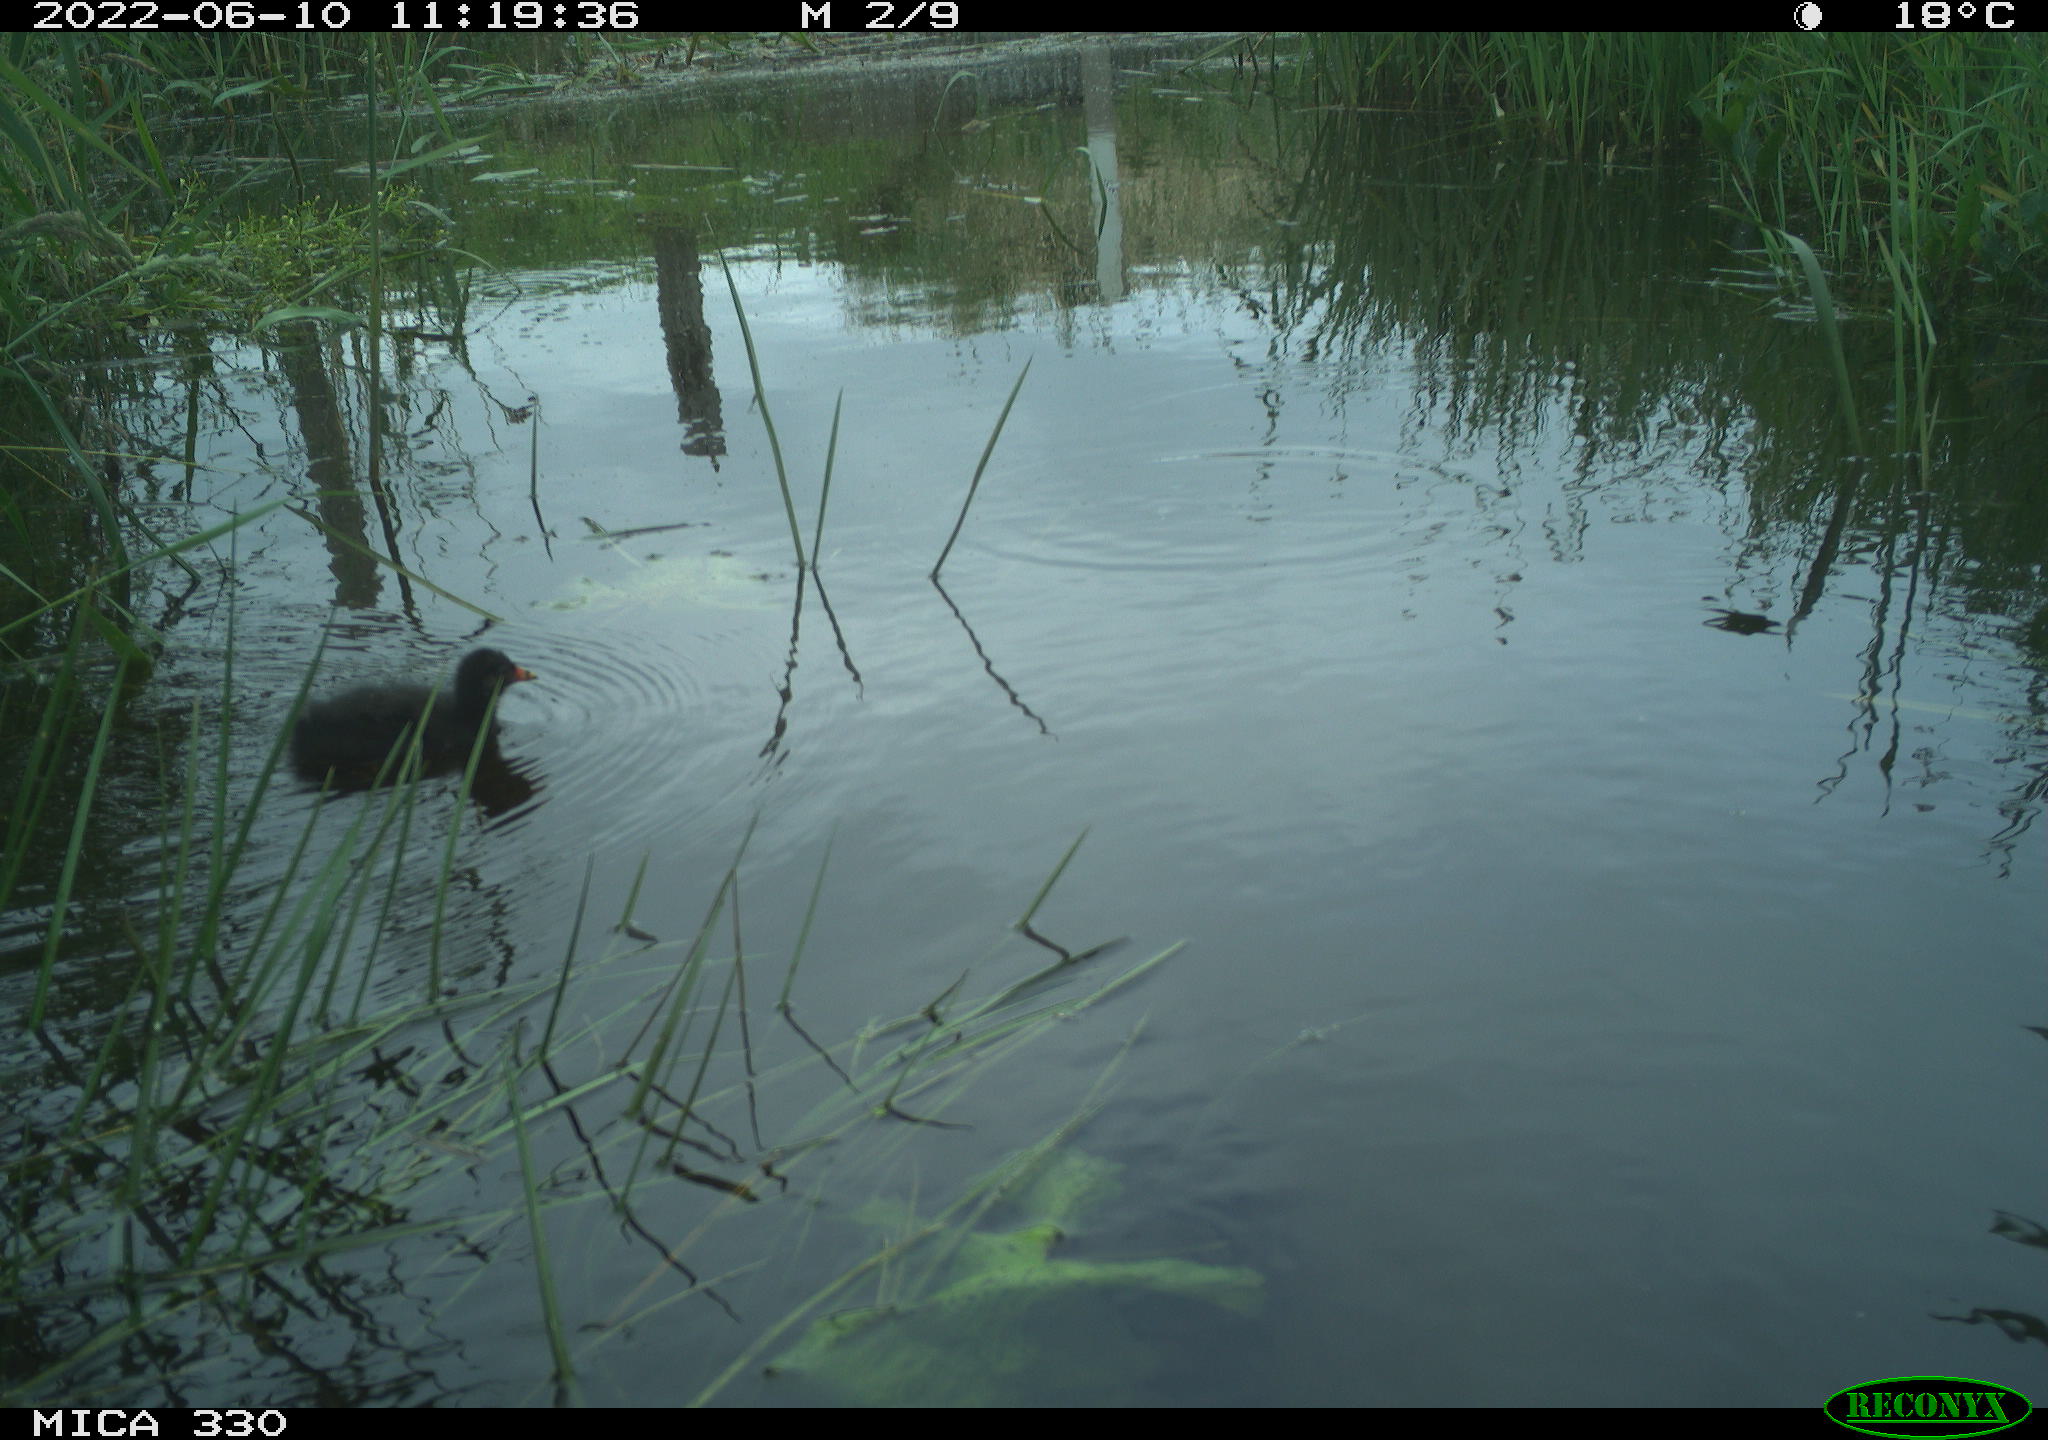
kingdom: Animalia
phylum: Chordata
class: Aves
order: Gruiformes
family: Rallidae
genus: Gallinula
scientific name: Gallinula chloropus
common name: Common moorhen
